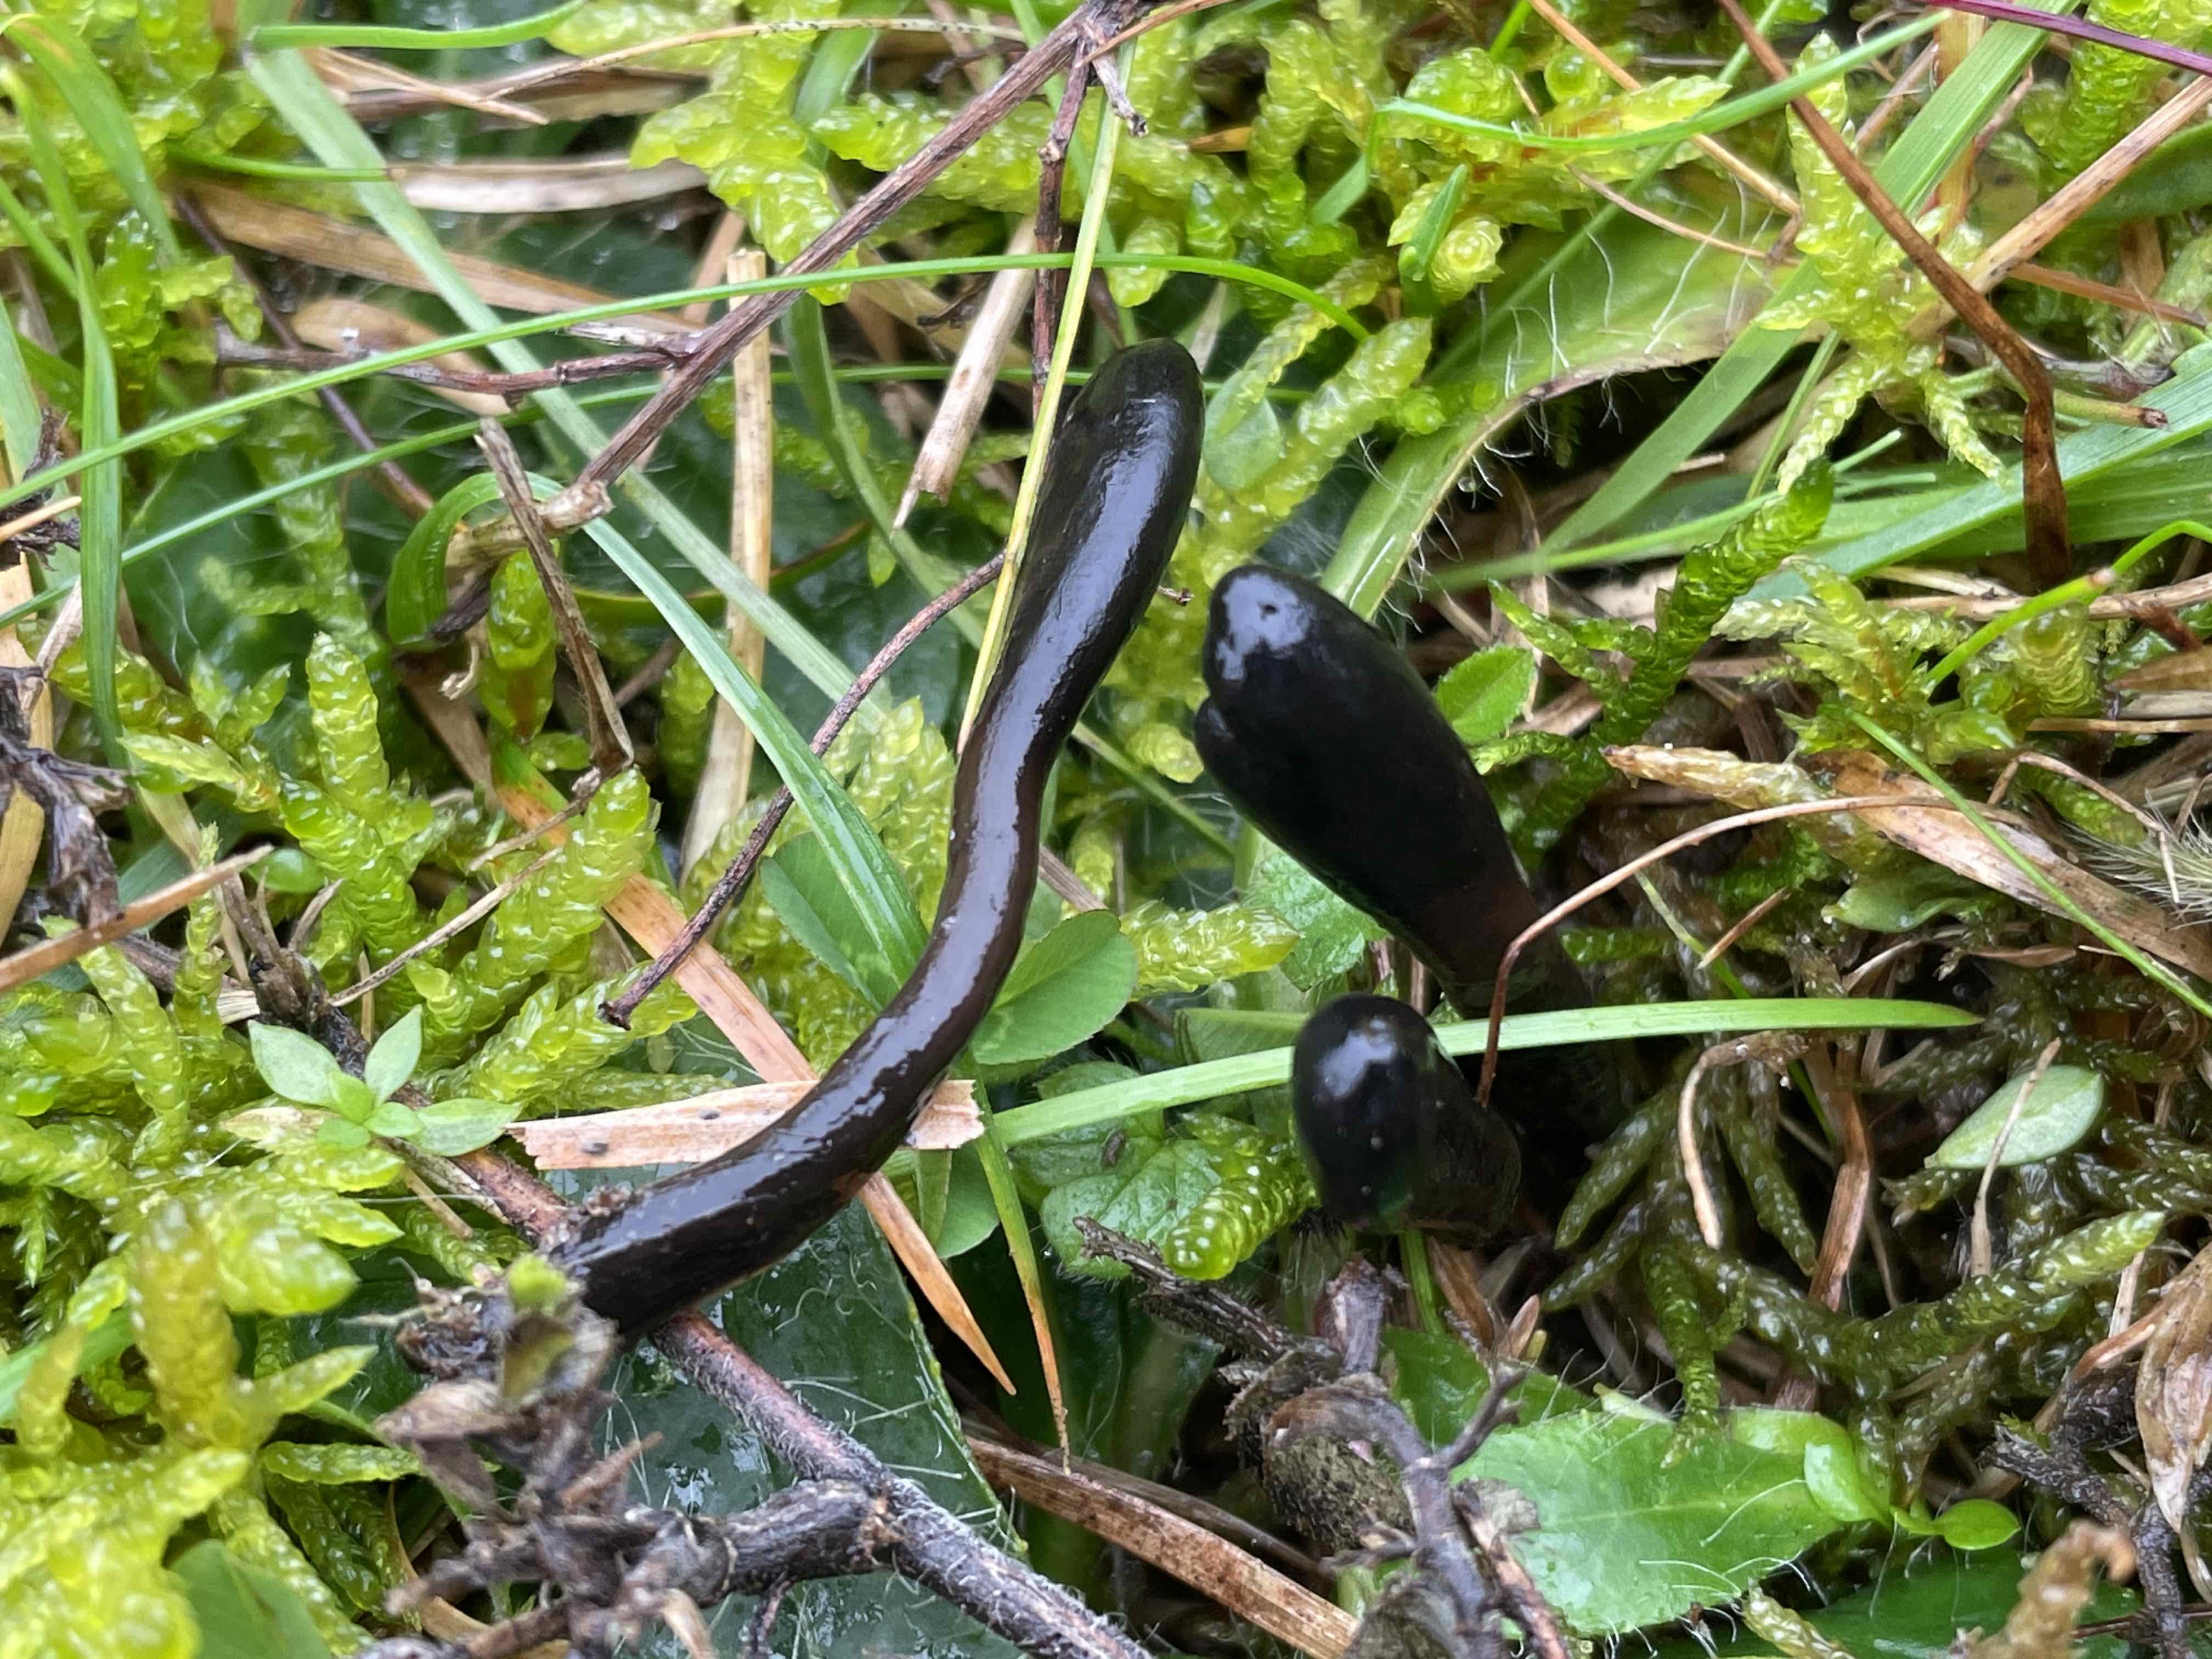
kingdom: Fungi
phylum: Ascomycota
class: Geoglossomycetes
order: Geoglossales
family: Geoglossaceae
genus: Glutinoglossum
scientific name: Glutinoglossum
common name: jordtunge
